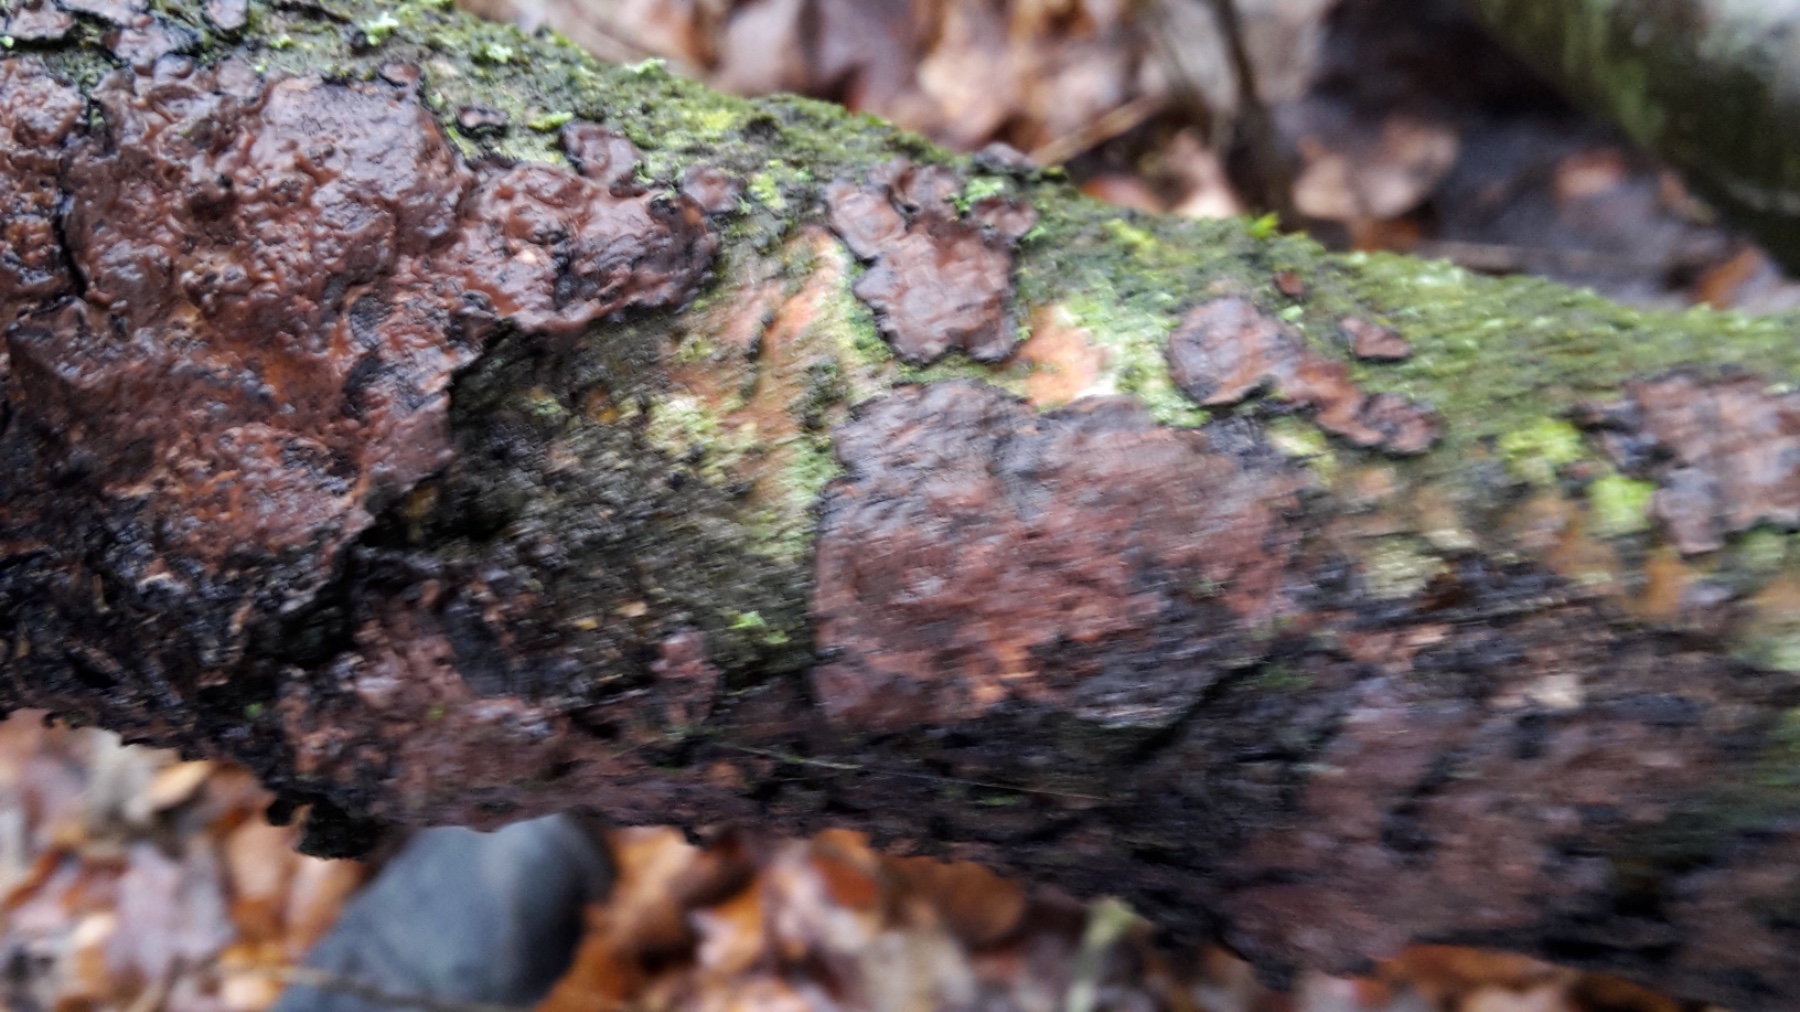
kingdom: Fungi
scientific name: Fungi
